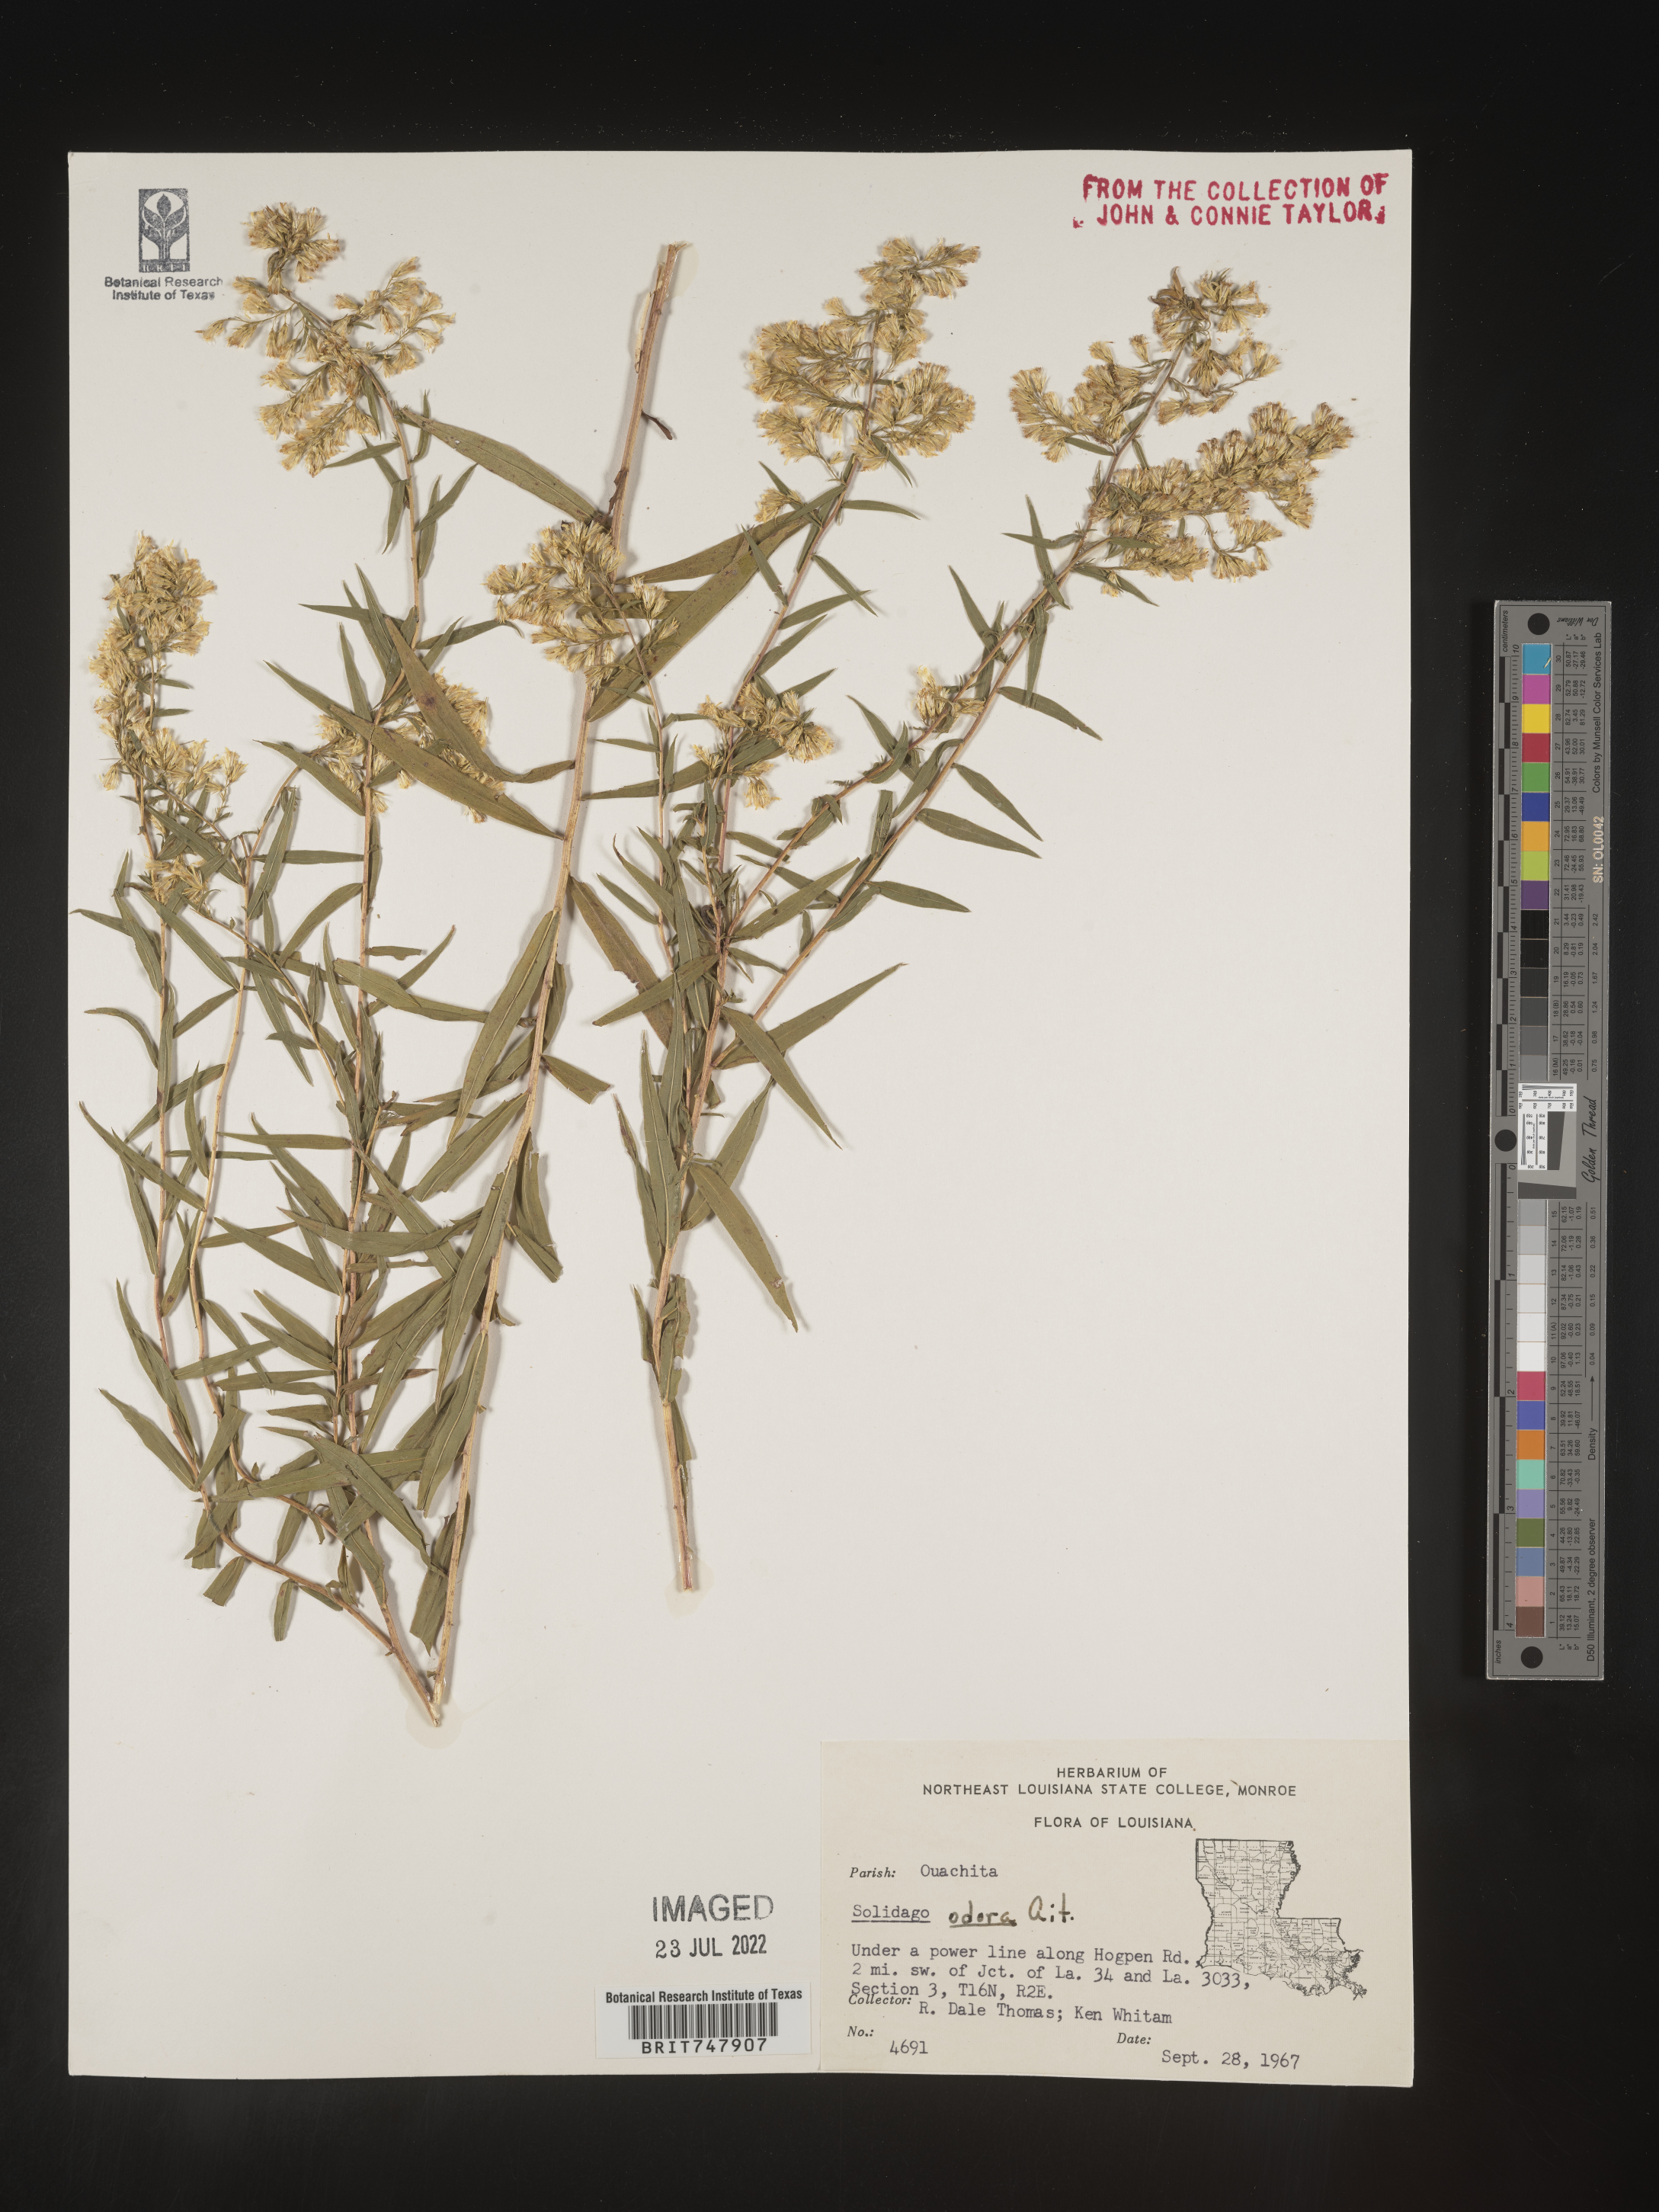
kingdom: Plantae
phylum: Tracheophyta
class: Magnoliopsida
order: Asterales
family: Asteraceae
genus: Solidago
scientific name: Solidago odora
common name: Anise-scented goldenrod
